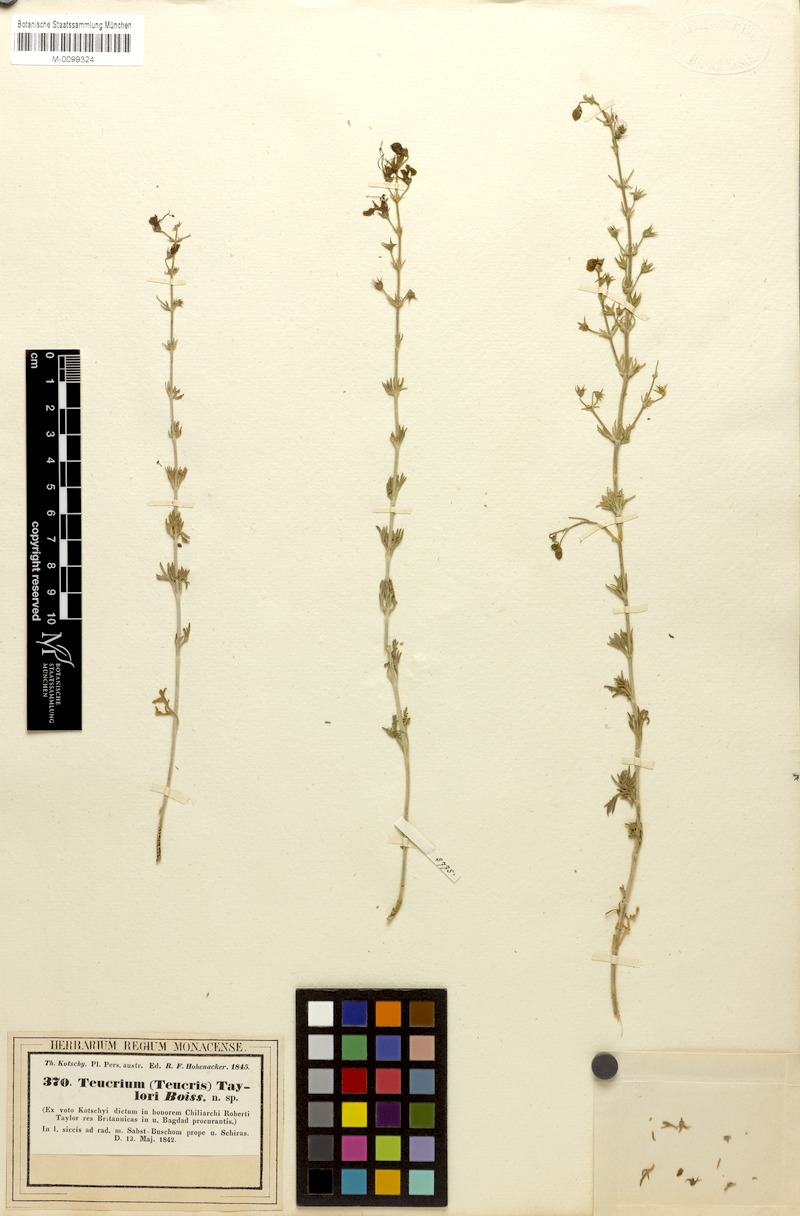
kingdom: Plantae
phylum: Tracheophyta
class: Magnoliopsida
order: Lamiales
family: Lamiaceae
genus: Teucrium
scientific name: Teucrium orientale
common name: Oriental germander
